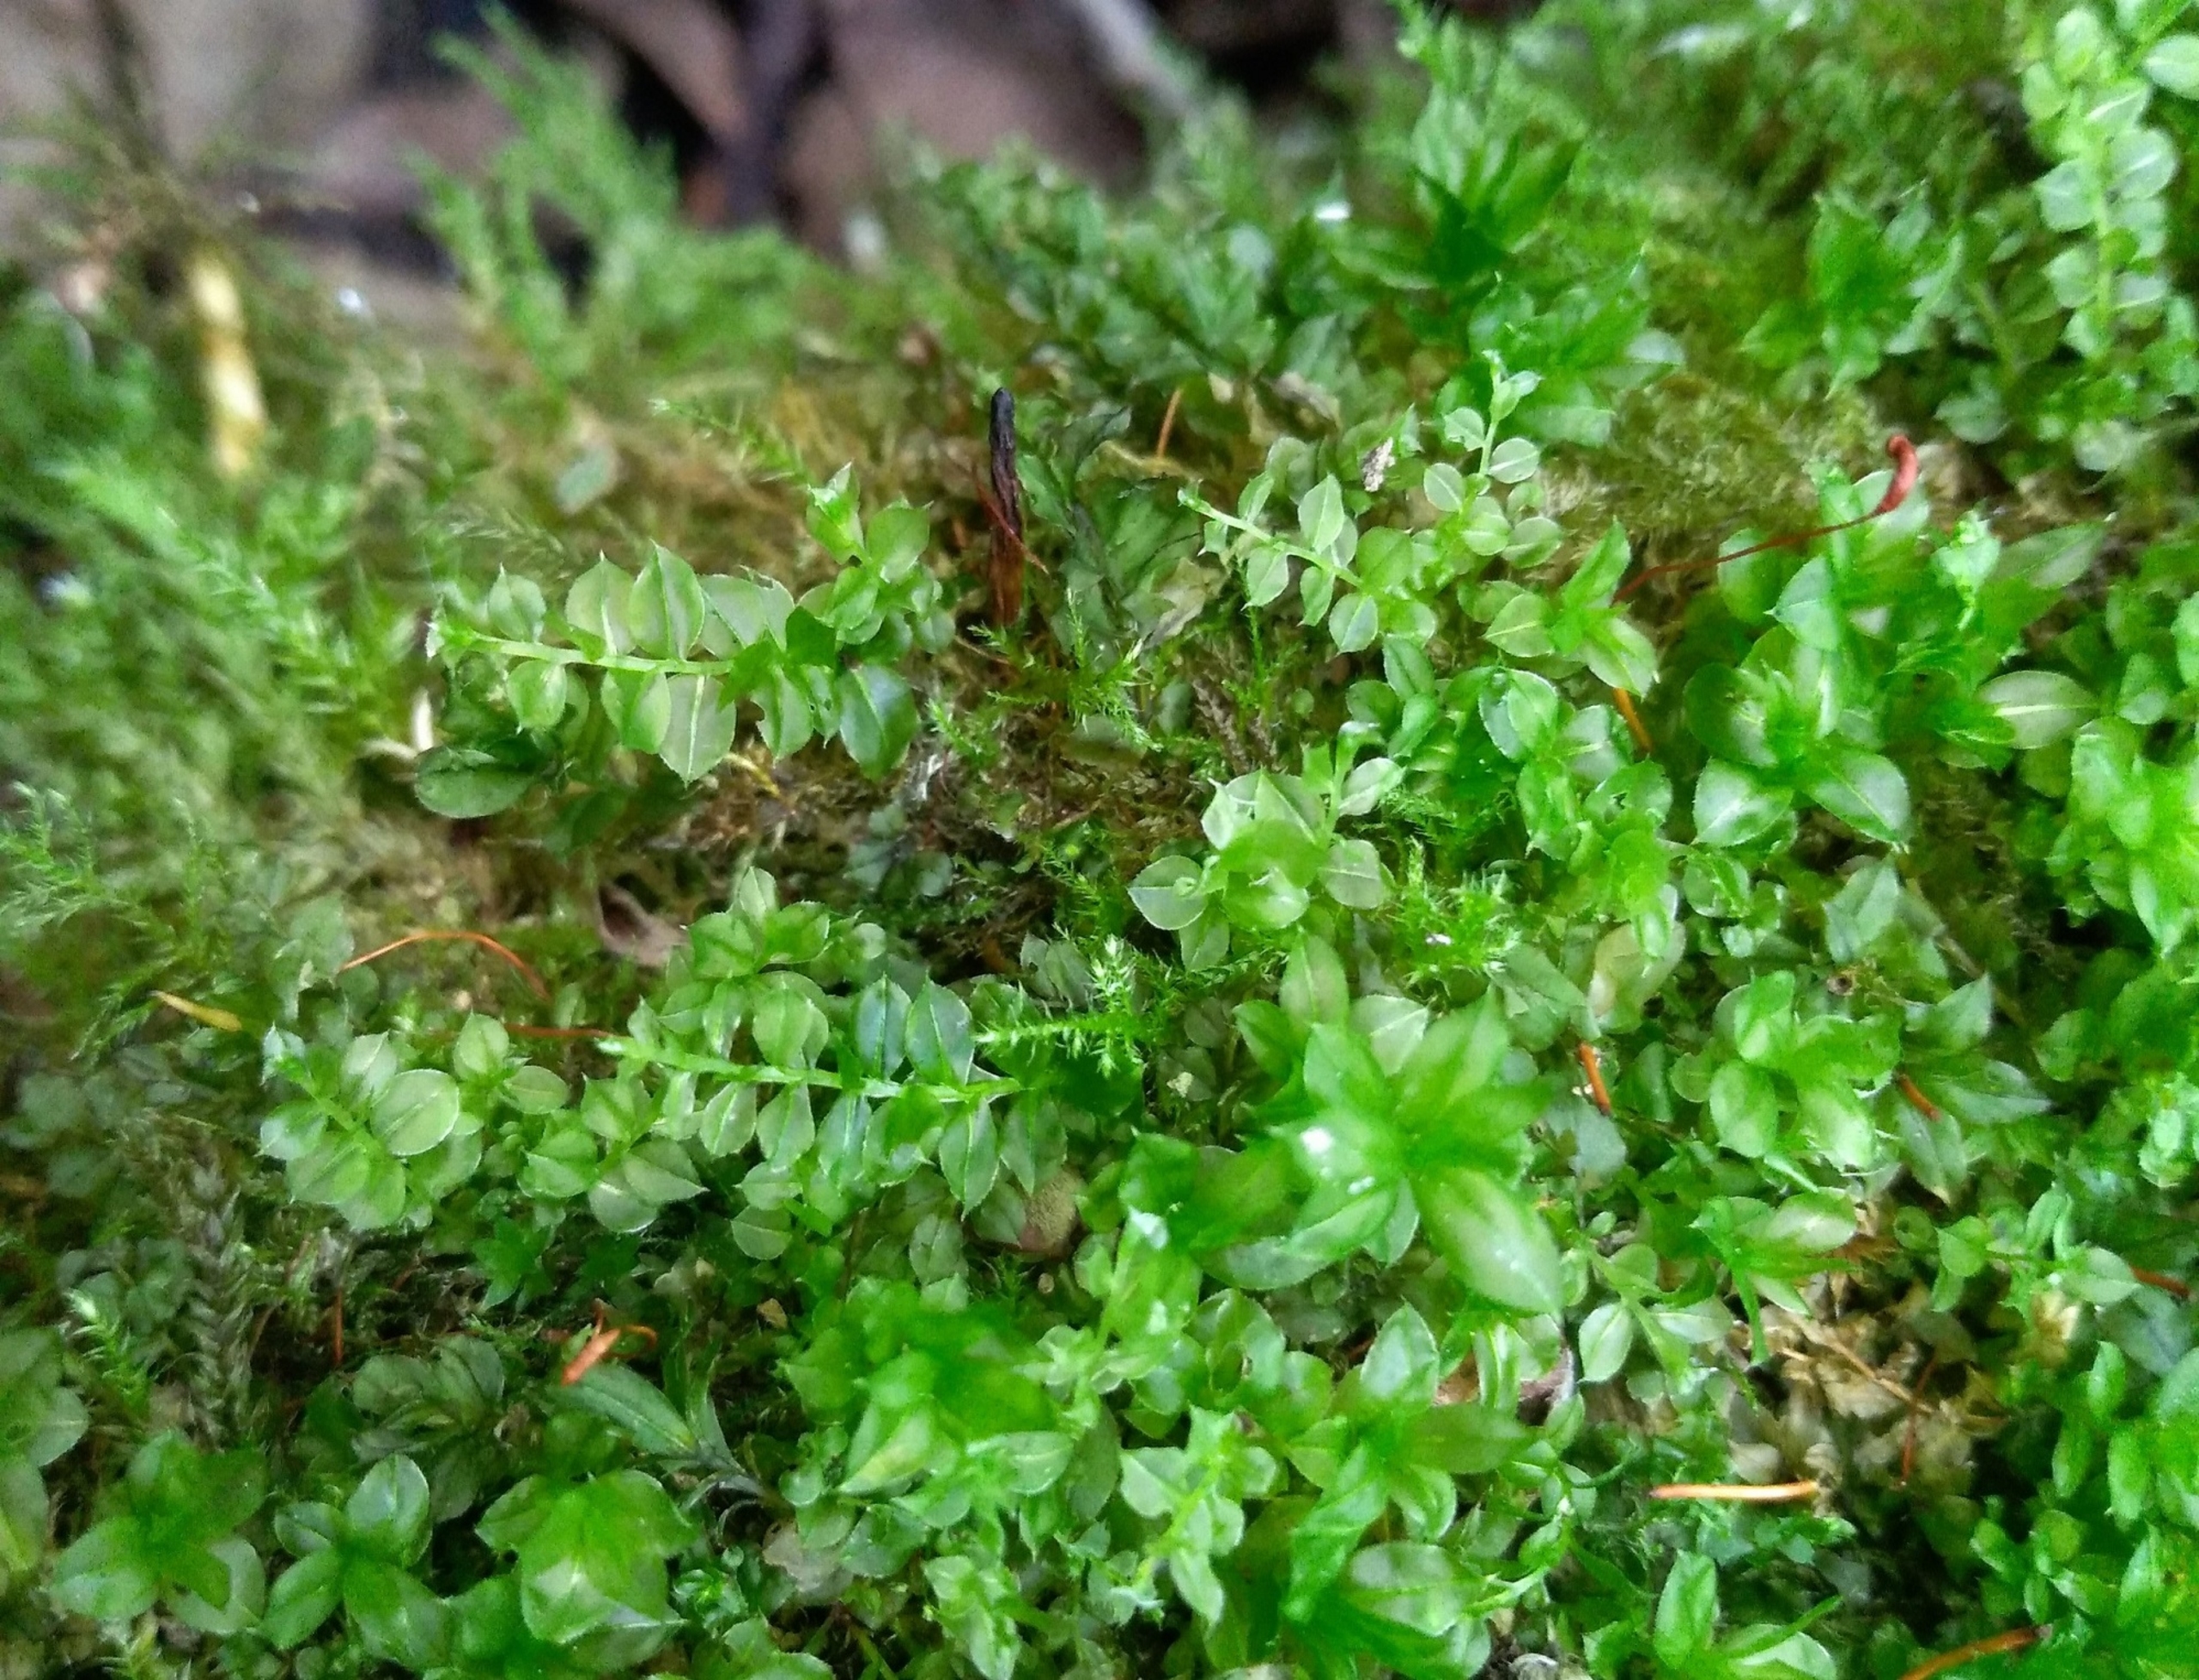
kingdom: Plantae
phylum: Bryophyta
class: Bryopsida
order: Bryales
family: Mniaceae
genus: Plagiomnium
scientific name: Plagiomnium cuspidatum
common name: Gærde-krybstjerne
